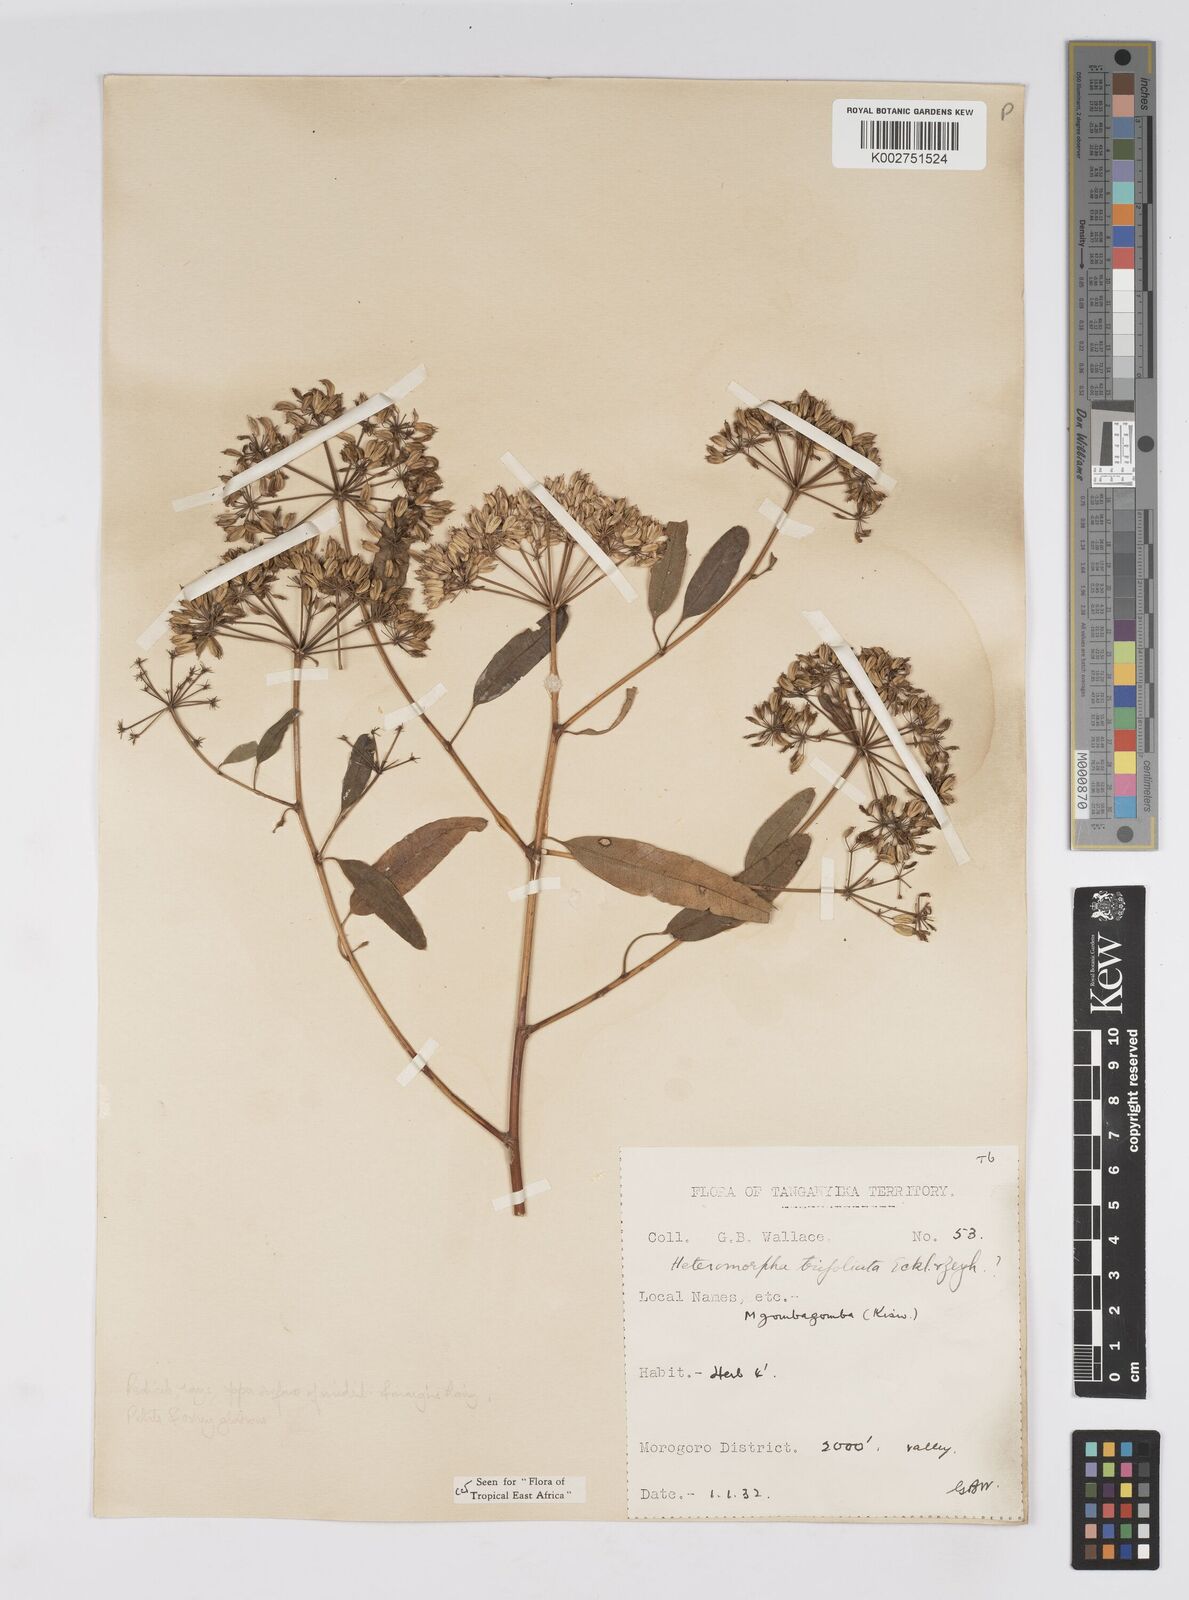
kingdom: Plantae
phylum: Tracheophyta
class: Magnoliopsida
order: Apiales
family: Apiaceae
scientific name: Apiaceae
